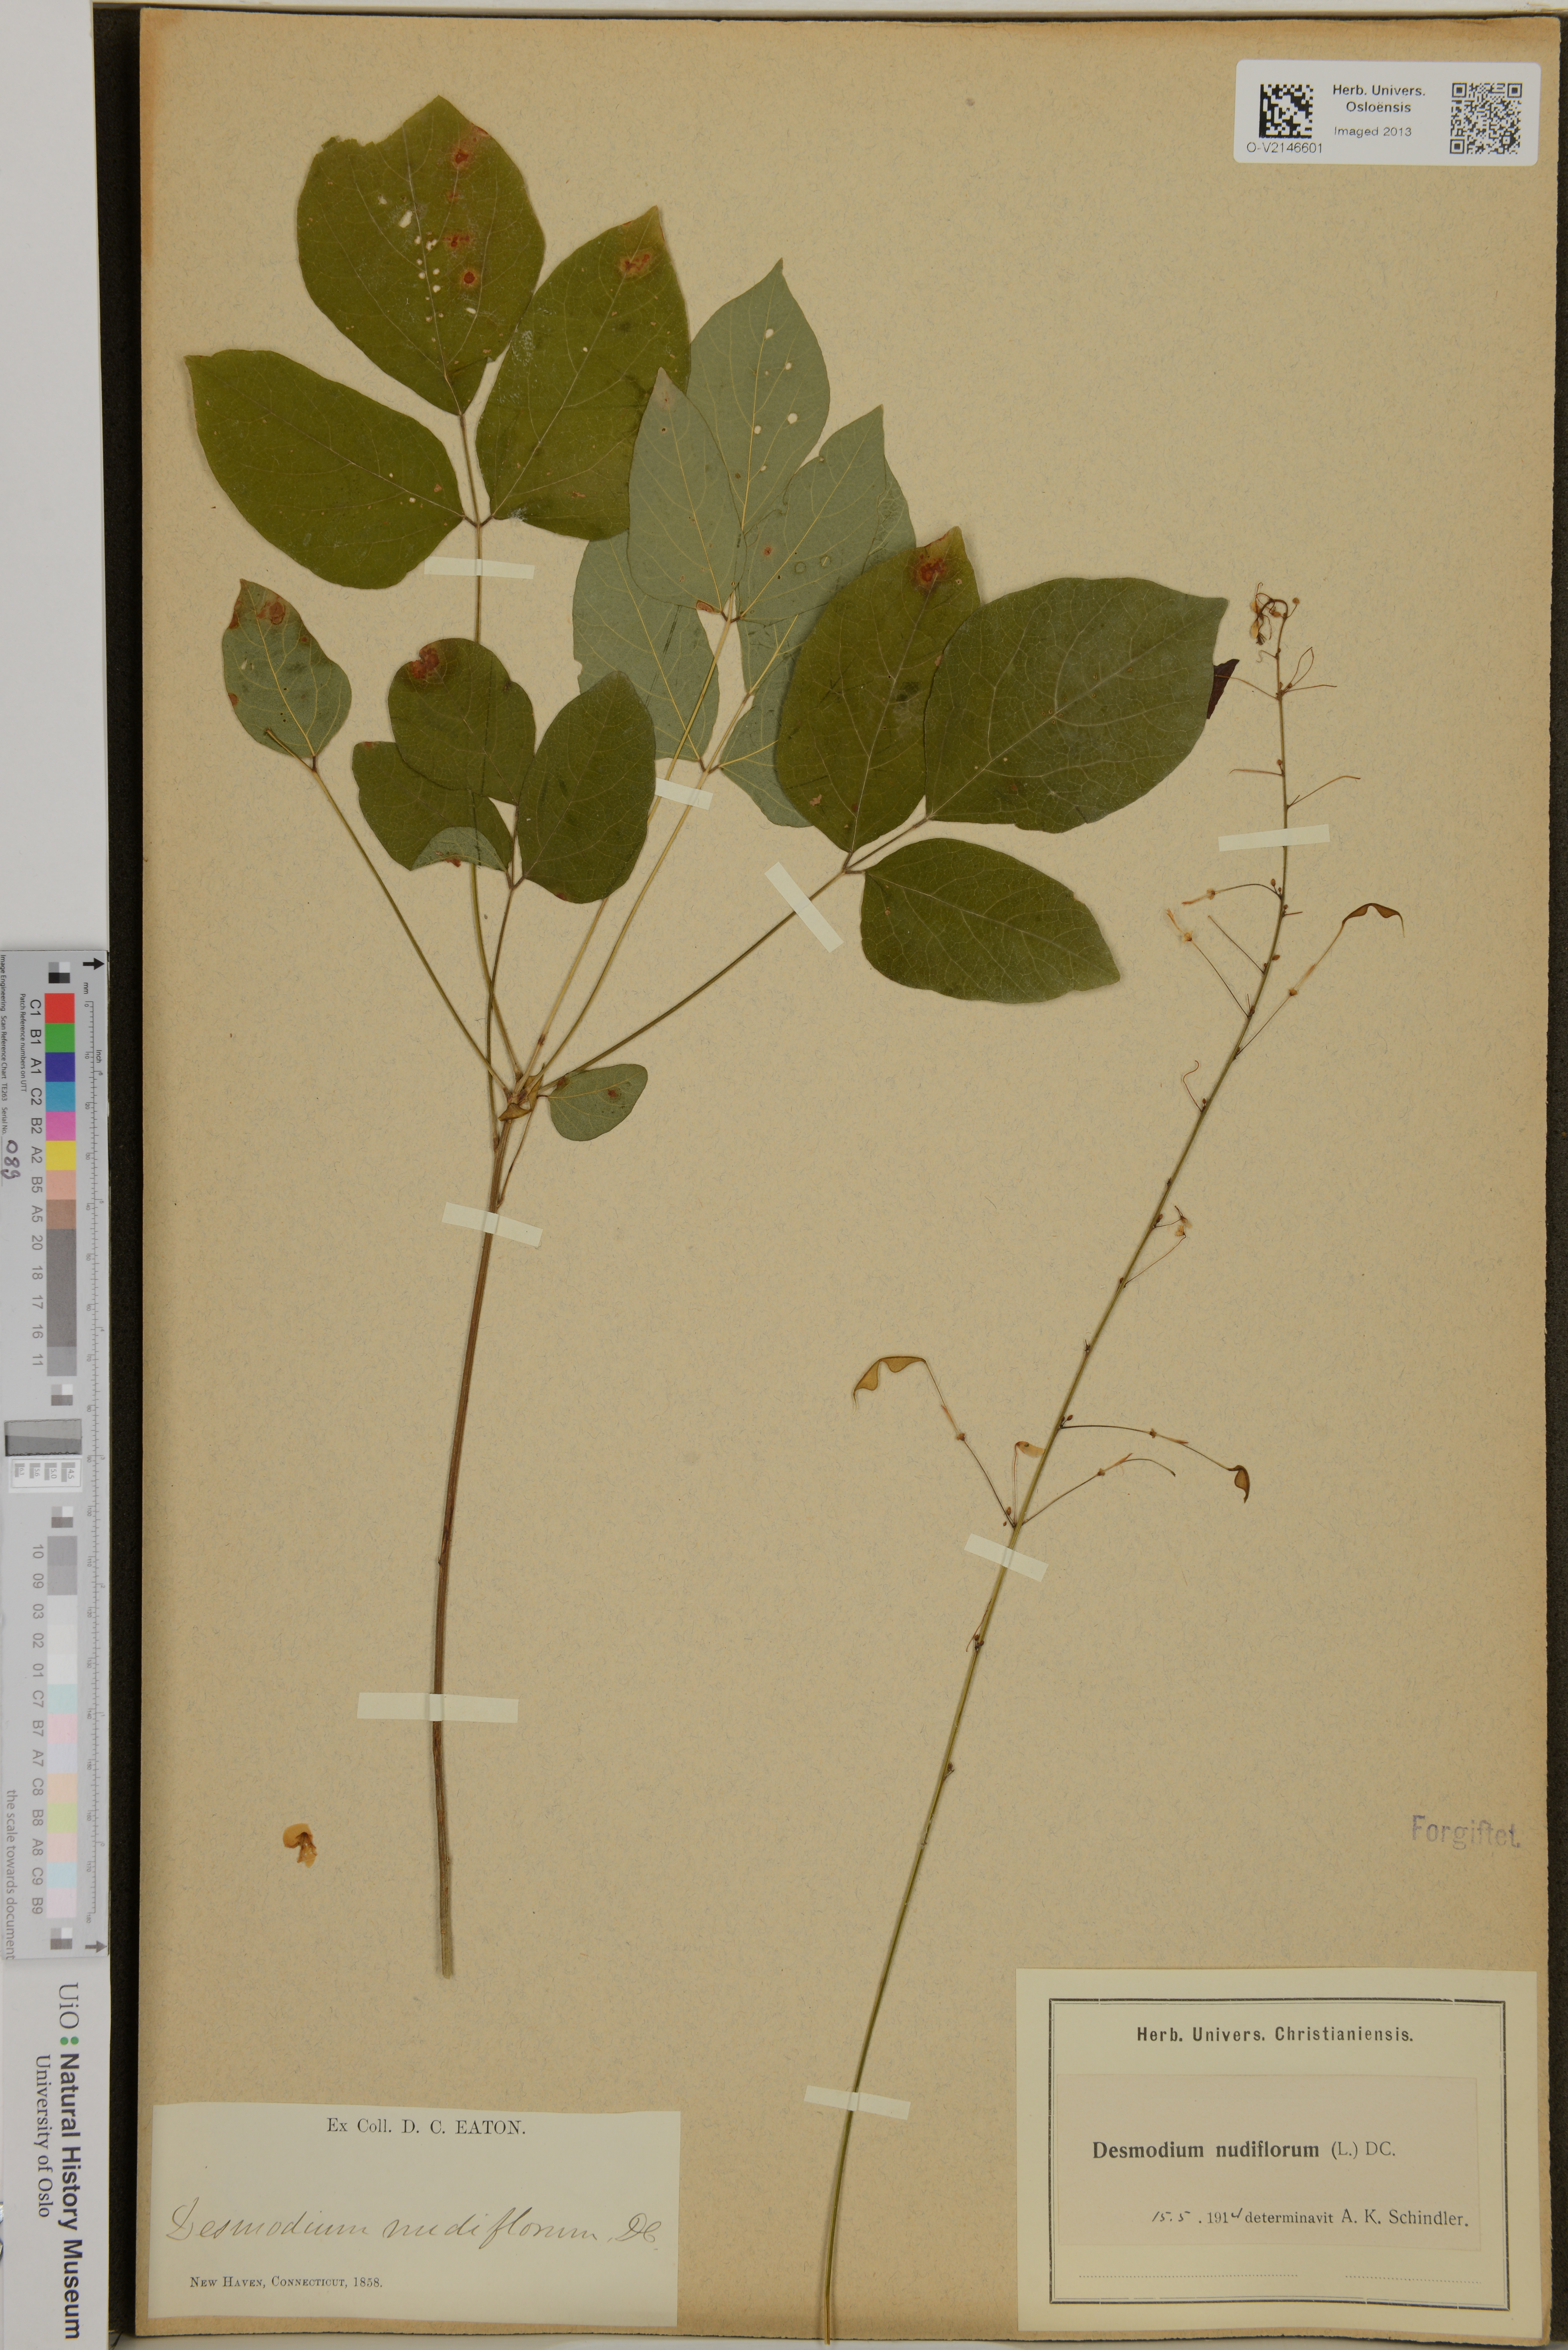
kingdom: Plantae
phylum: Tracheophyta
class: Magnoliopsida
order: Fabales
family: Fabaceae
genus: Hylodesmum
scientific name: Hylodesmum nudiflorum
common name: Bare-stemmed tick-trefoil
